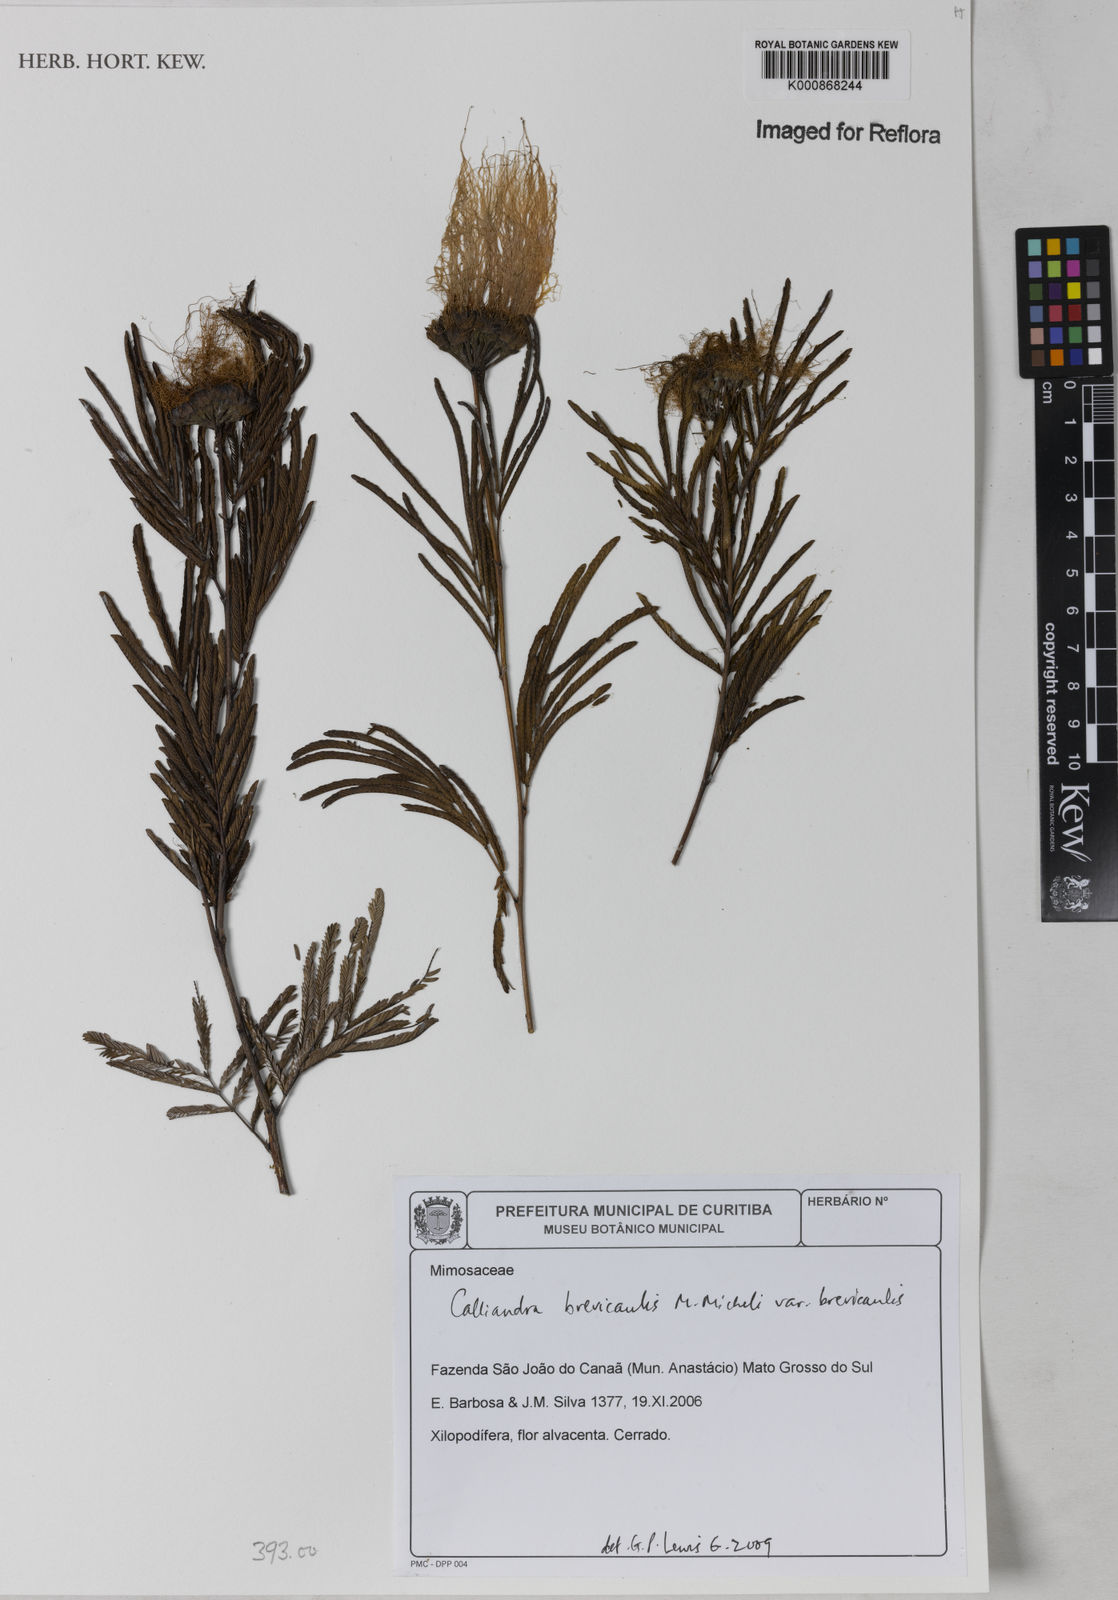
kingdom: Plantae
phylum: Tracheophyta
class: Magnoliopsida
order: Fabales
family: Fabaceae
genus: Calliandra
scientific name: Calliandra brevicaulis
